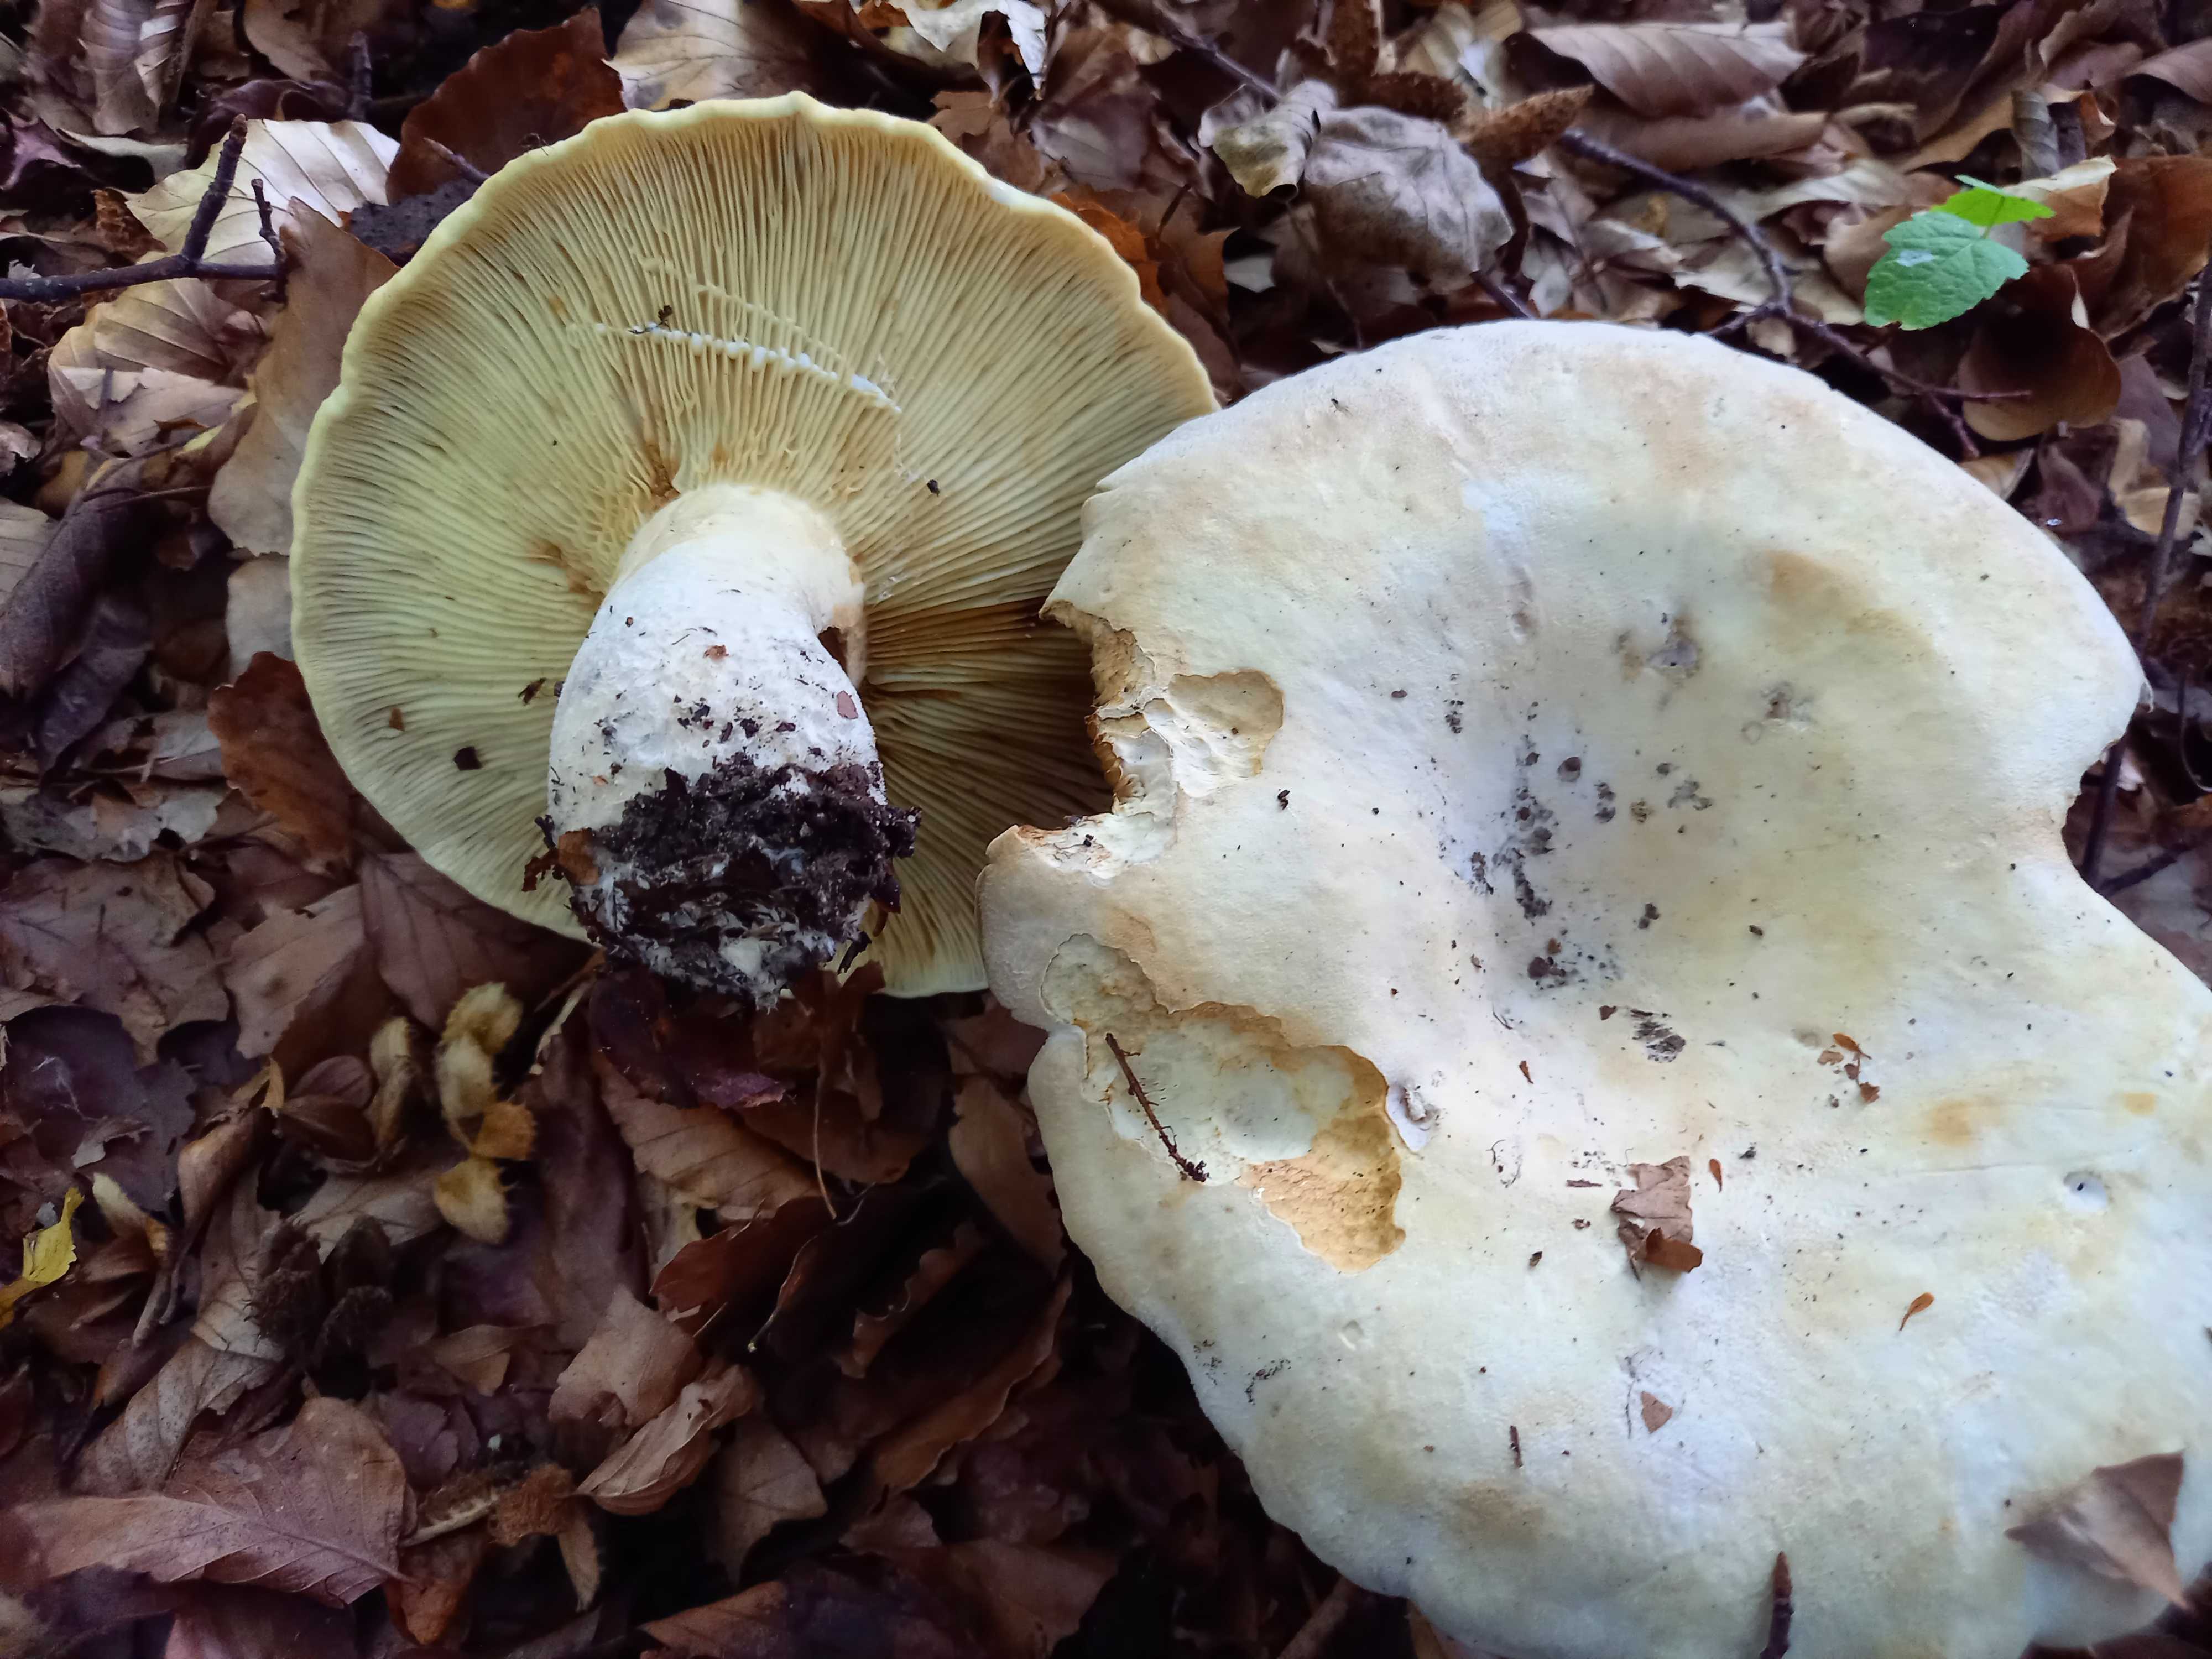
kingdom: Fungi
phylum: Basidiomycota
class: Agaricomycetes
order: Russulales
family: Russulaceae
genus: Lactifluus
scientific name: Lactifluus vellereus
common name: hvidfiltet mælkehat
